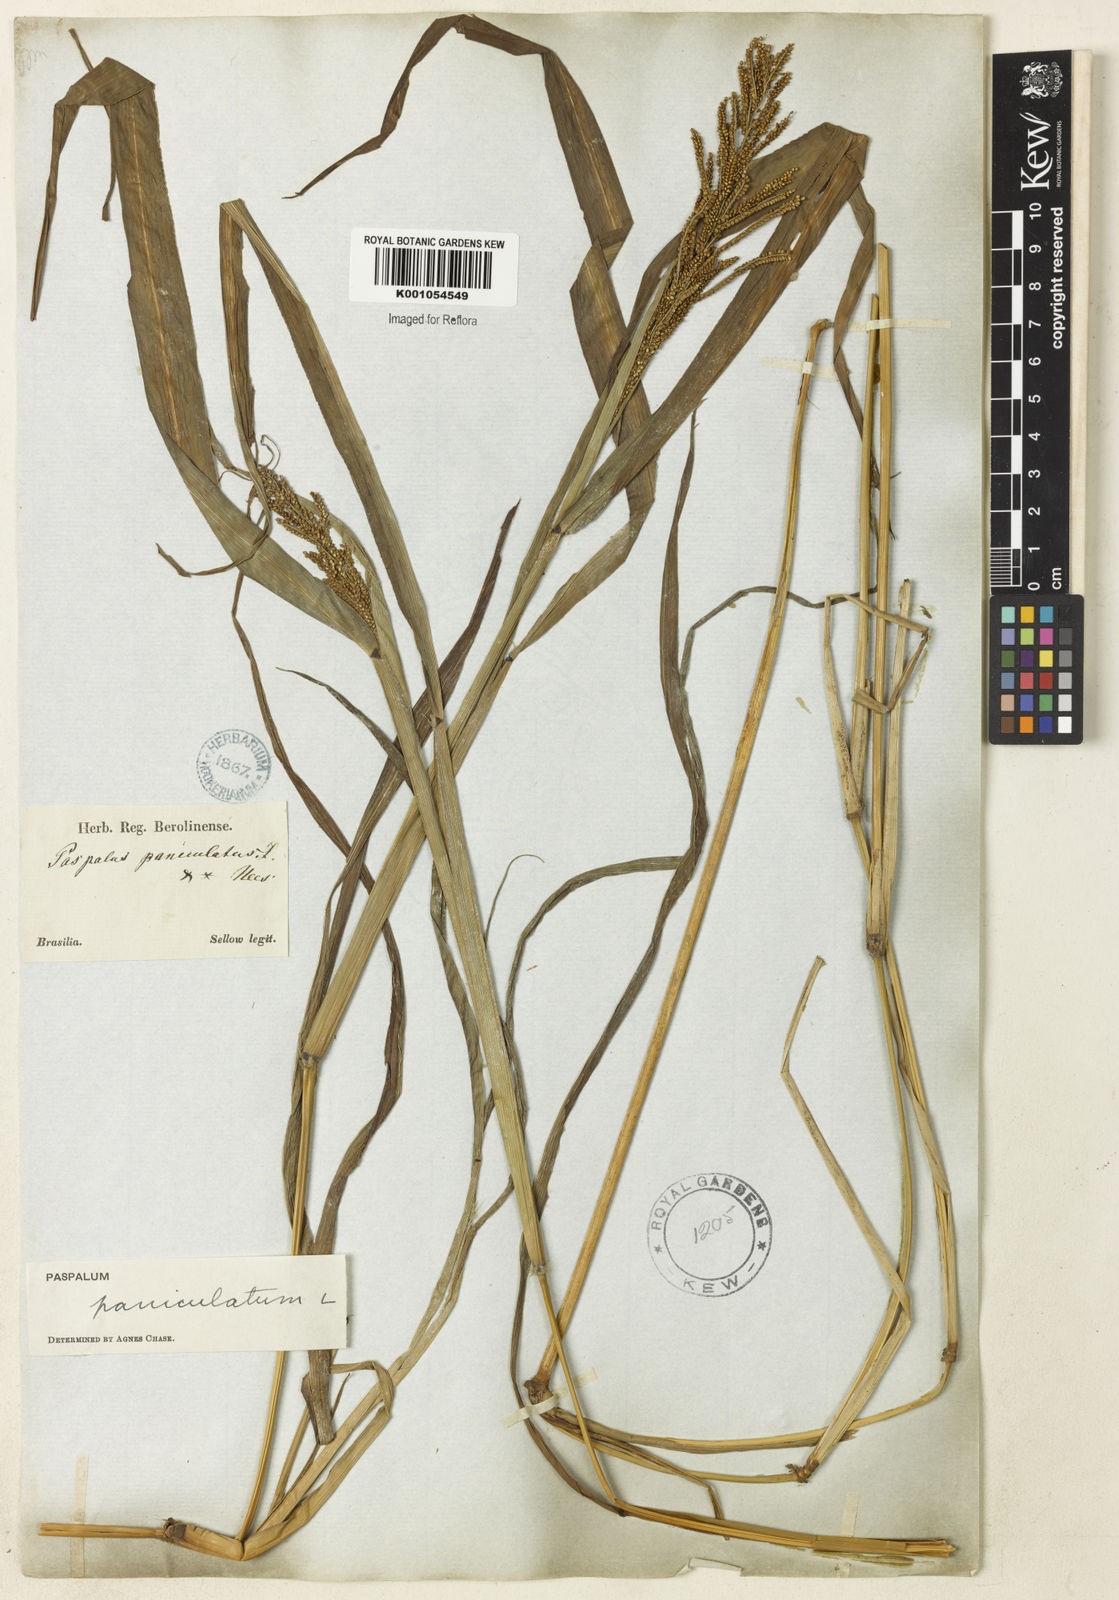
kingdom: Plantae
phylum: Tracheophyta
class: Liliopsida
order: Poales
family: Poaceae
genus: Paspalum
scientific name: Paspalum paniculatum
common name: Arrocillo
